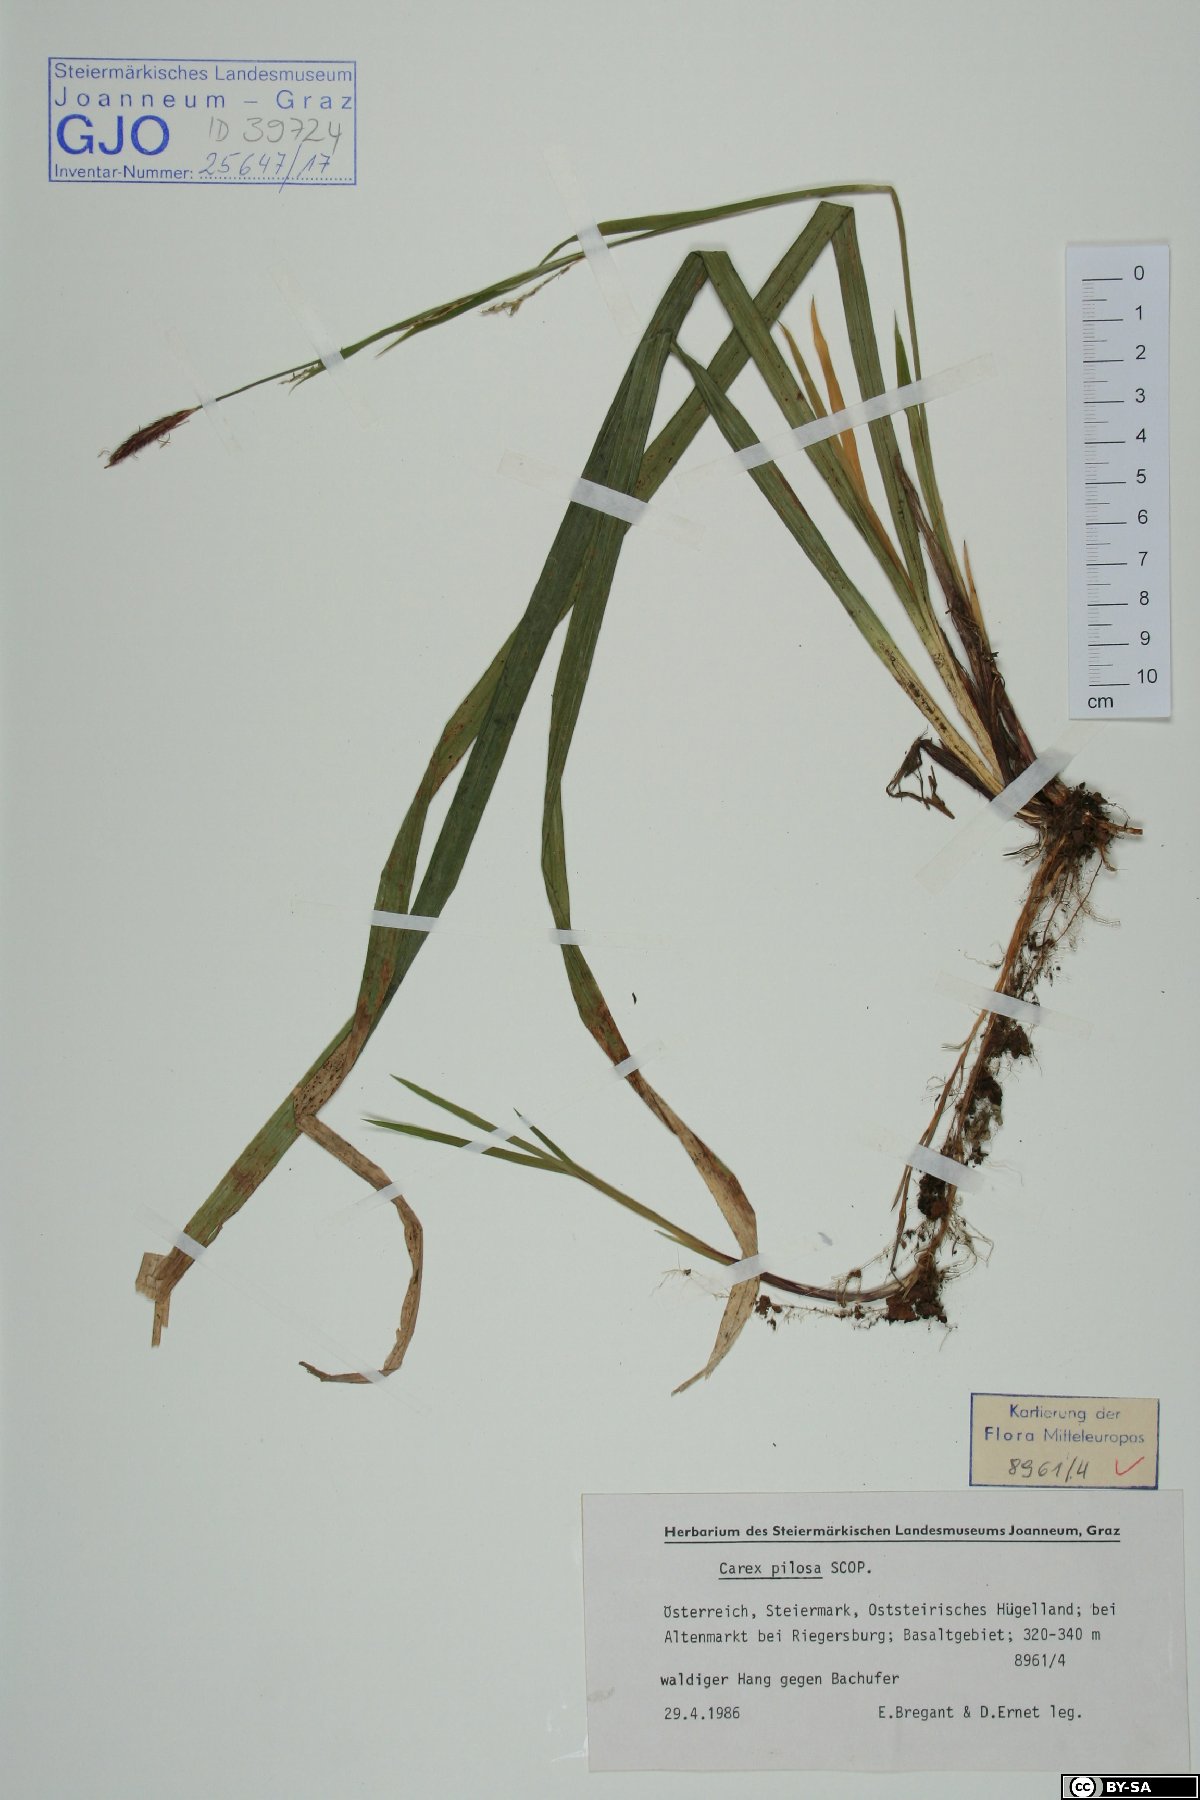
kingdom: Plantae
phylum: Tracheophyta
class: Liliopsida
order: Poales
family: Cyperaceae
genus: Carex
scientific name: Carex pilosa
